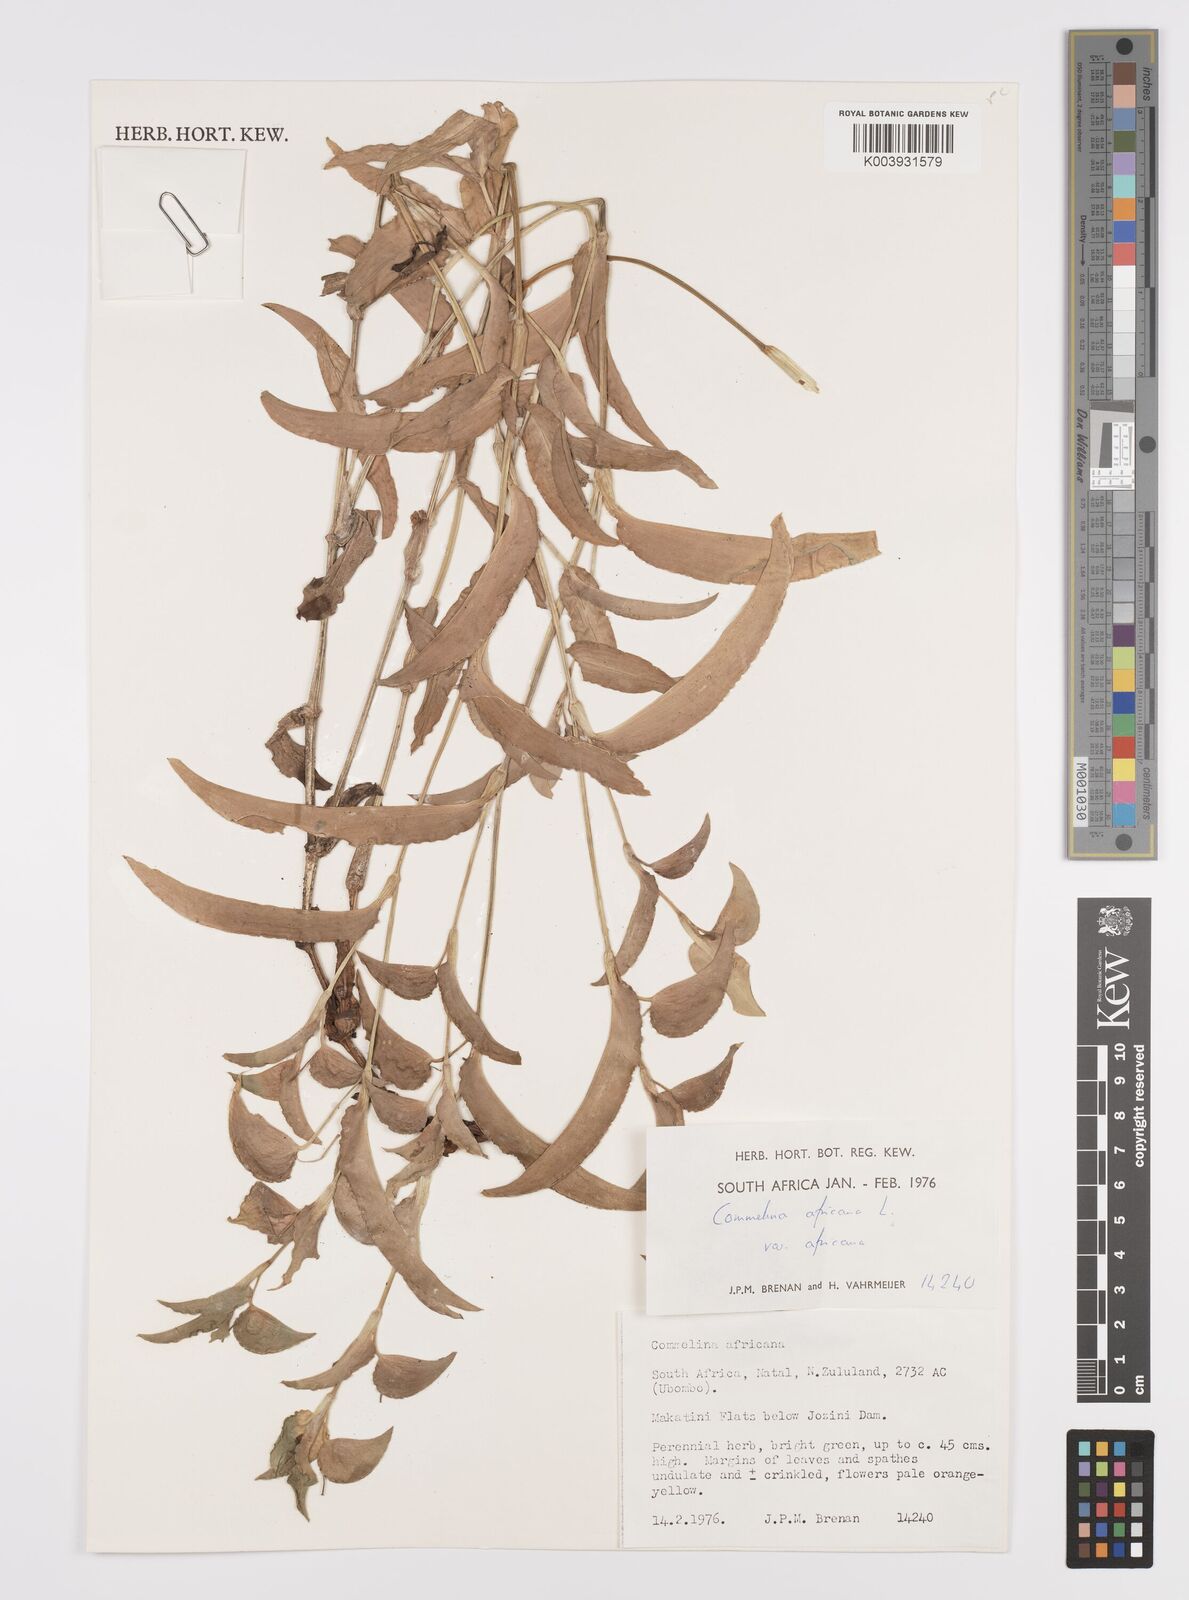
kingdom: Plantae
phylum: Tracheophyta
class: Liliopsida
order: Commelinales
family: Commelinaceae
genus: Commelina
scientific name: Commelina africana
